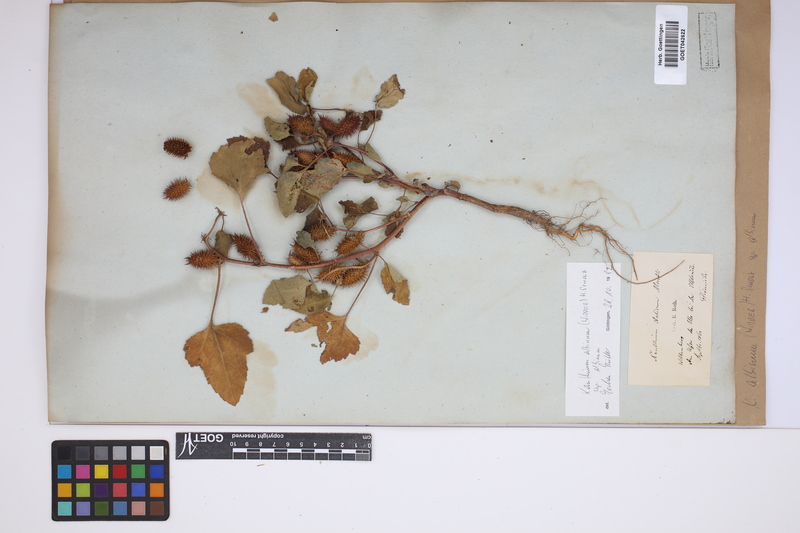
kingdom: Plantae
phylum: Tracheophyta
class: Magnoliopsida
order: Asterales
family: Asteraceae
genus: Xanthium
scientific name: Xanthium orientale
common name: Californian burr
